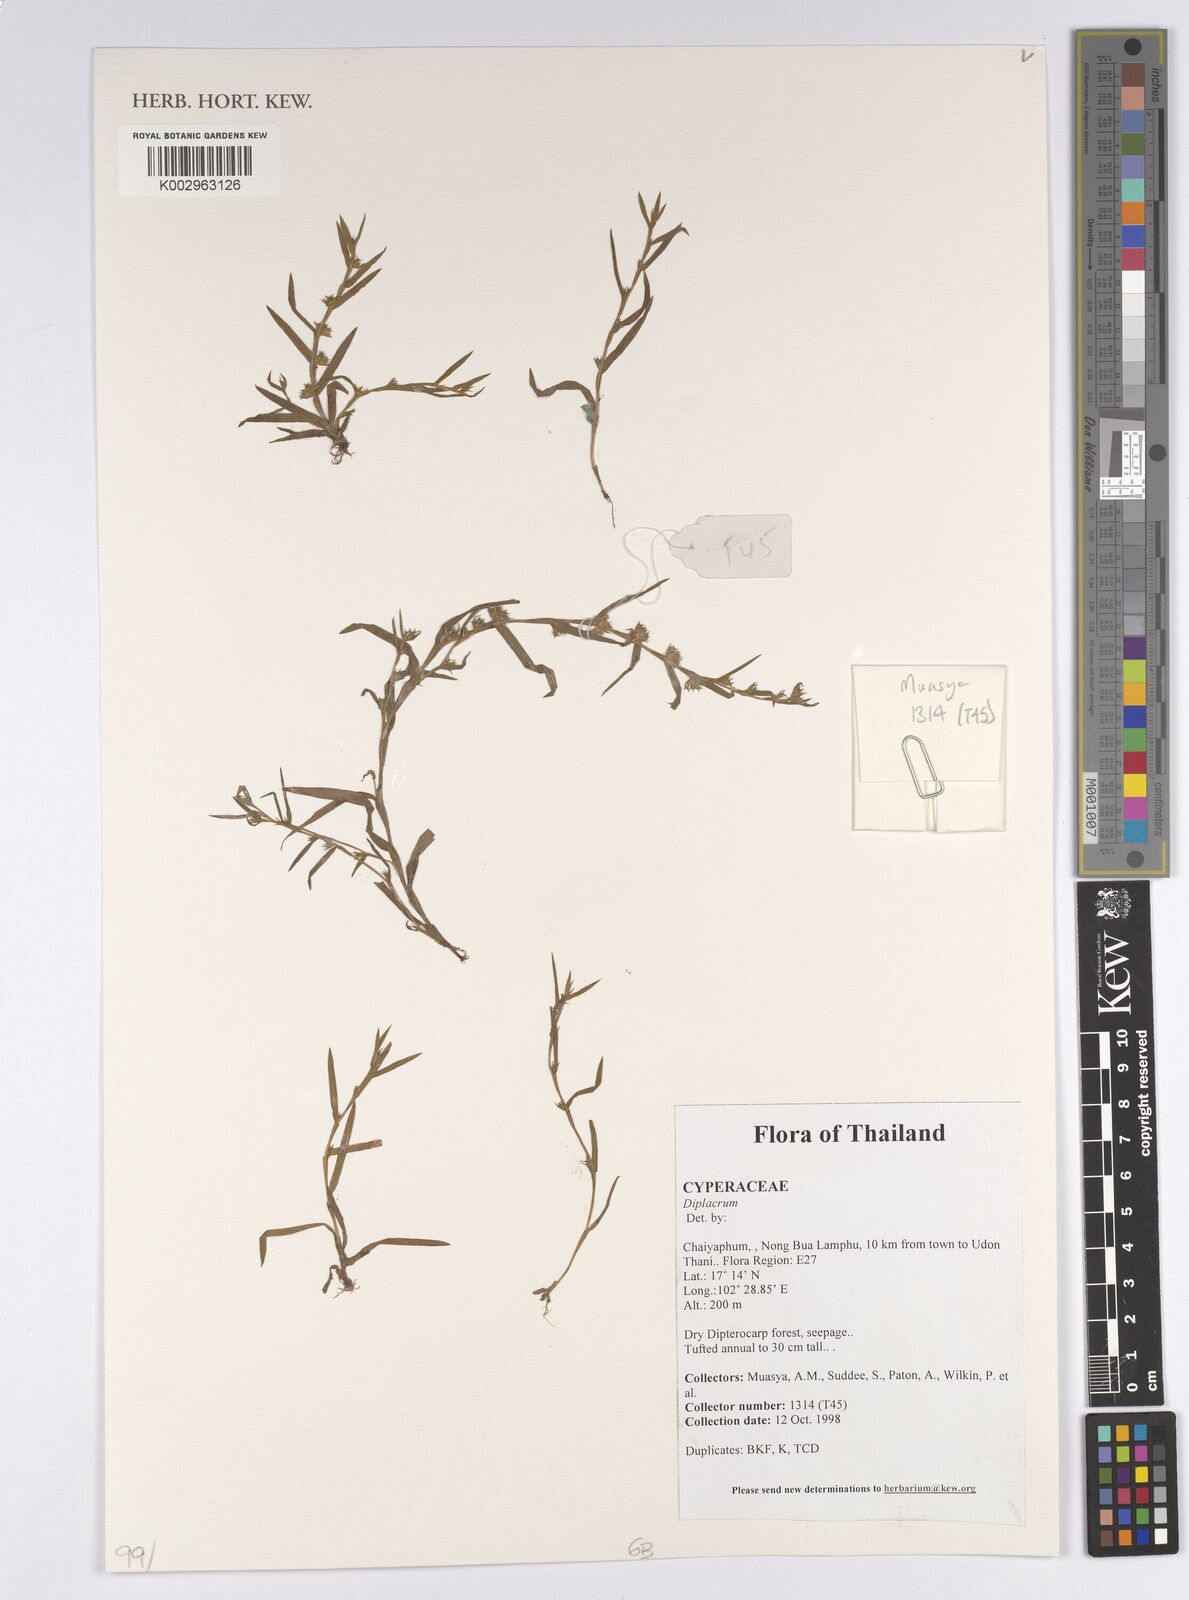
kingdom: Plantae
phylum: Tracheophyta
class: Liliopsida
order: Poales
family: Cyperaceae
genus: Diplacrum
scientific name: Diplacrum
